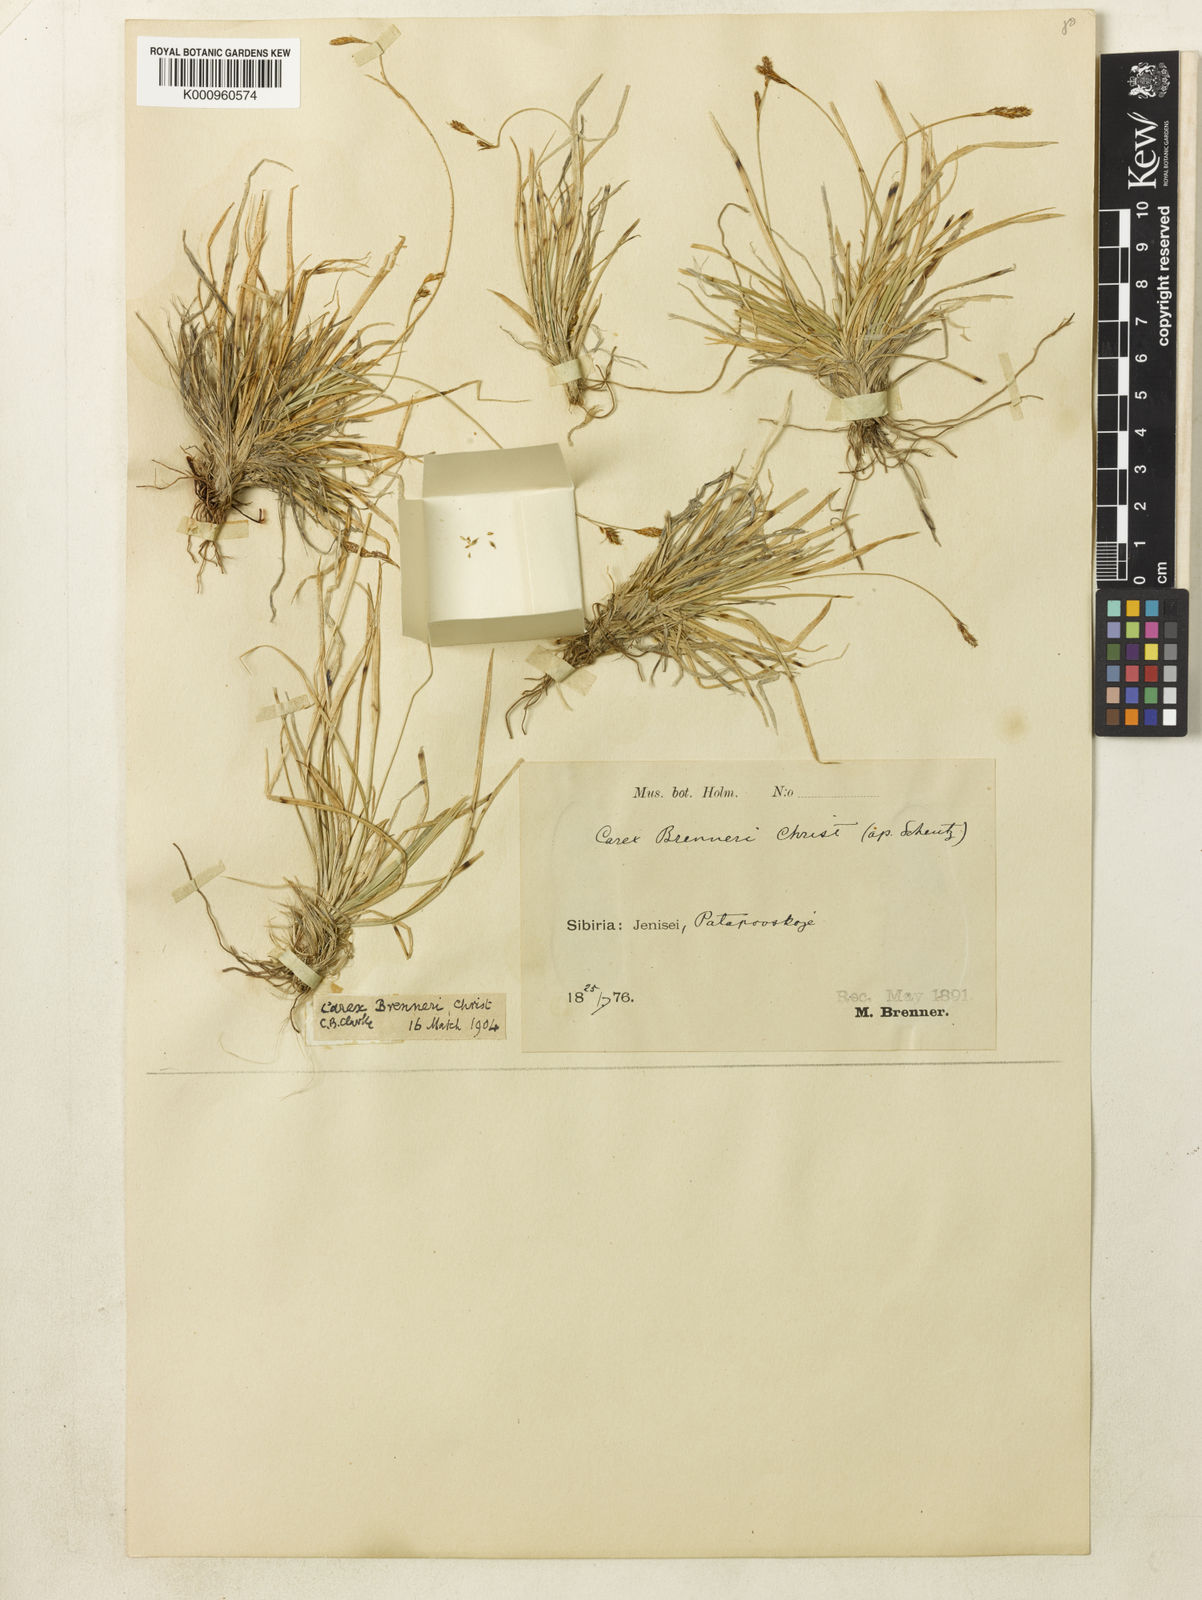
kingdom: Plantae
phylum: Tracheophyta
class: Liliopsida
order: Poales
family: Cyperaceae
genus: Carex
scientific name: Carex umbrosa
